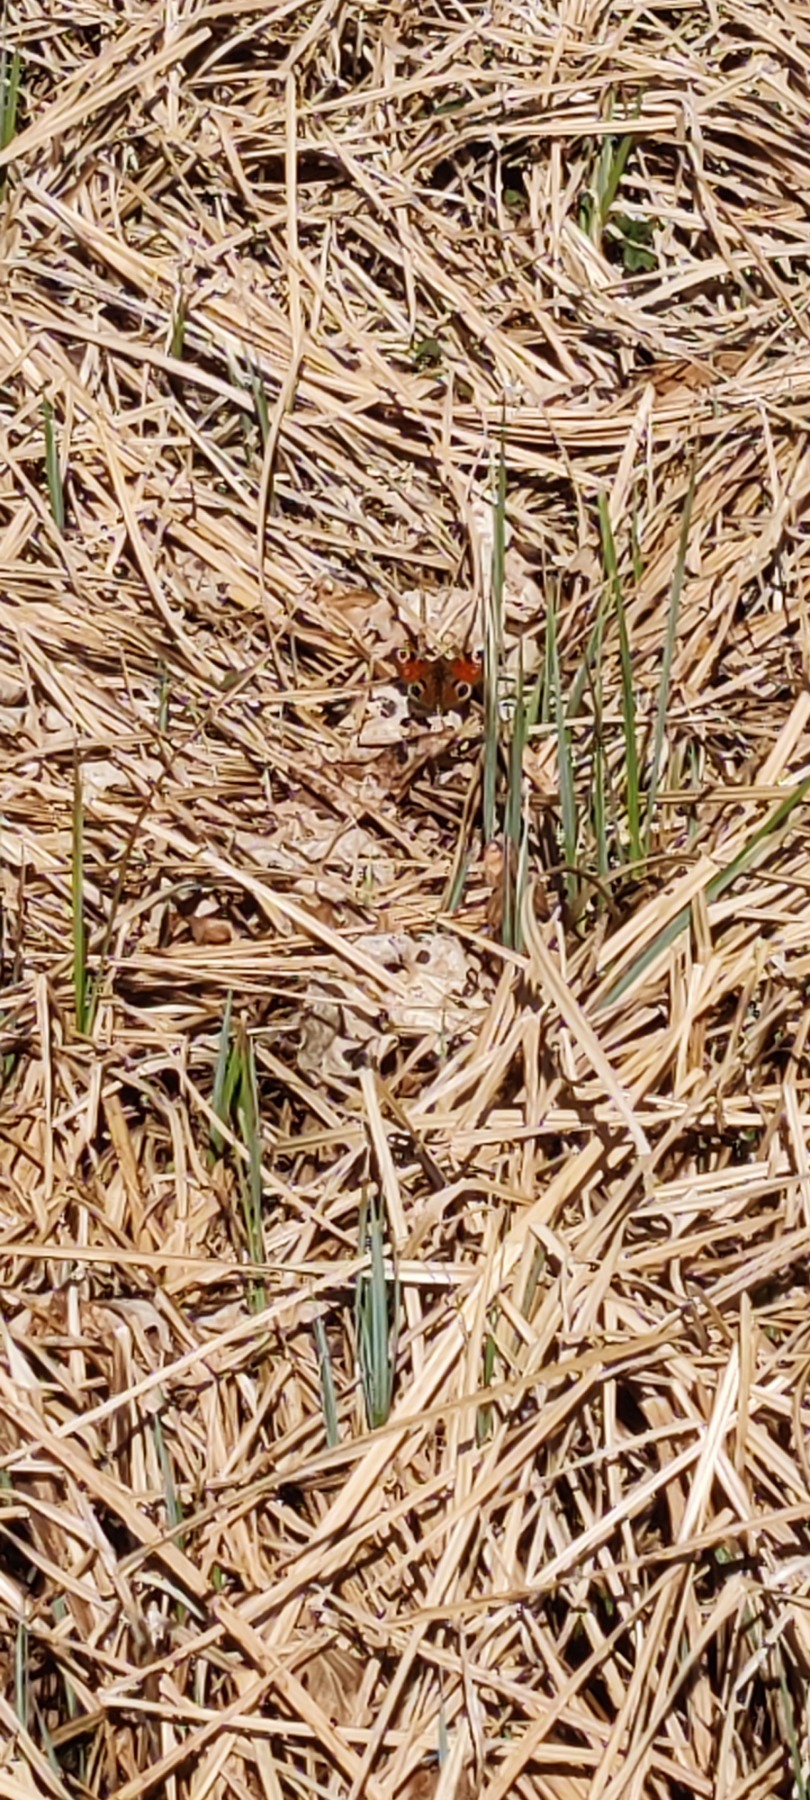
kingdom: Animalia
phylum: Arthropoda
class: Insecta
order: Lepidoptera
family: Nymphalidae
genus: Aglais
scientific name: Aglais io
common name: Dagpåfugleøje
